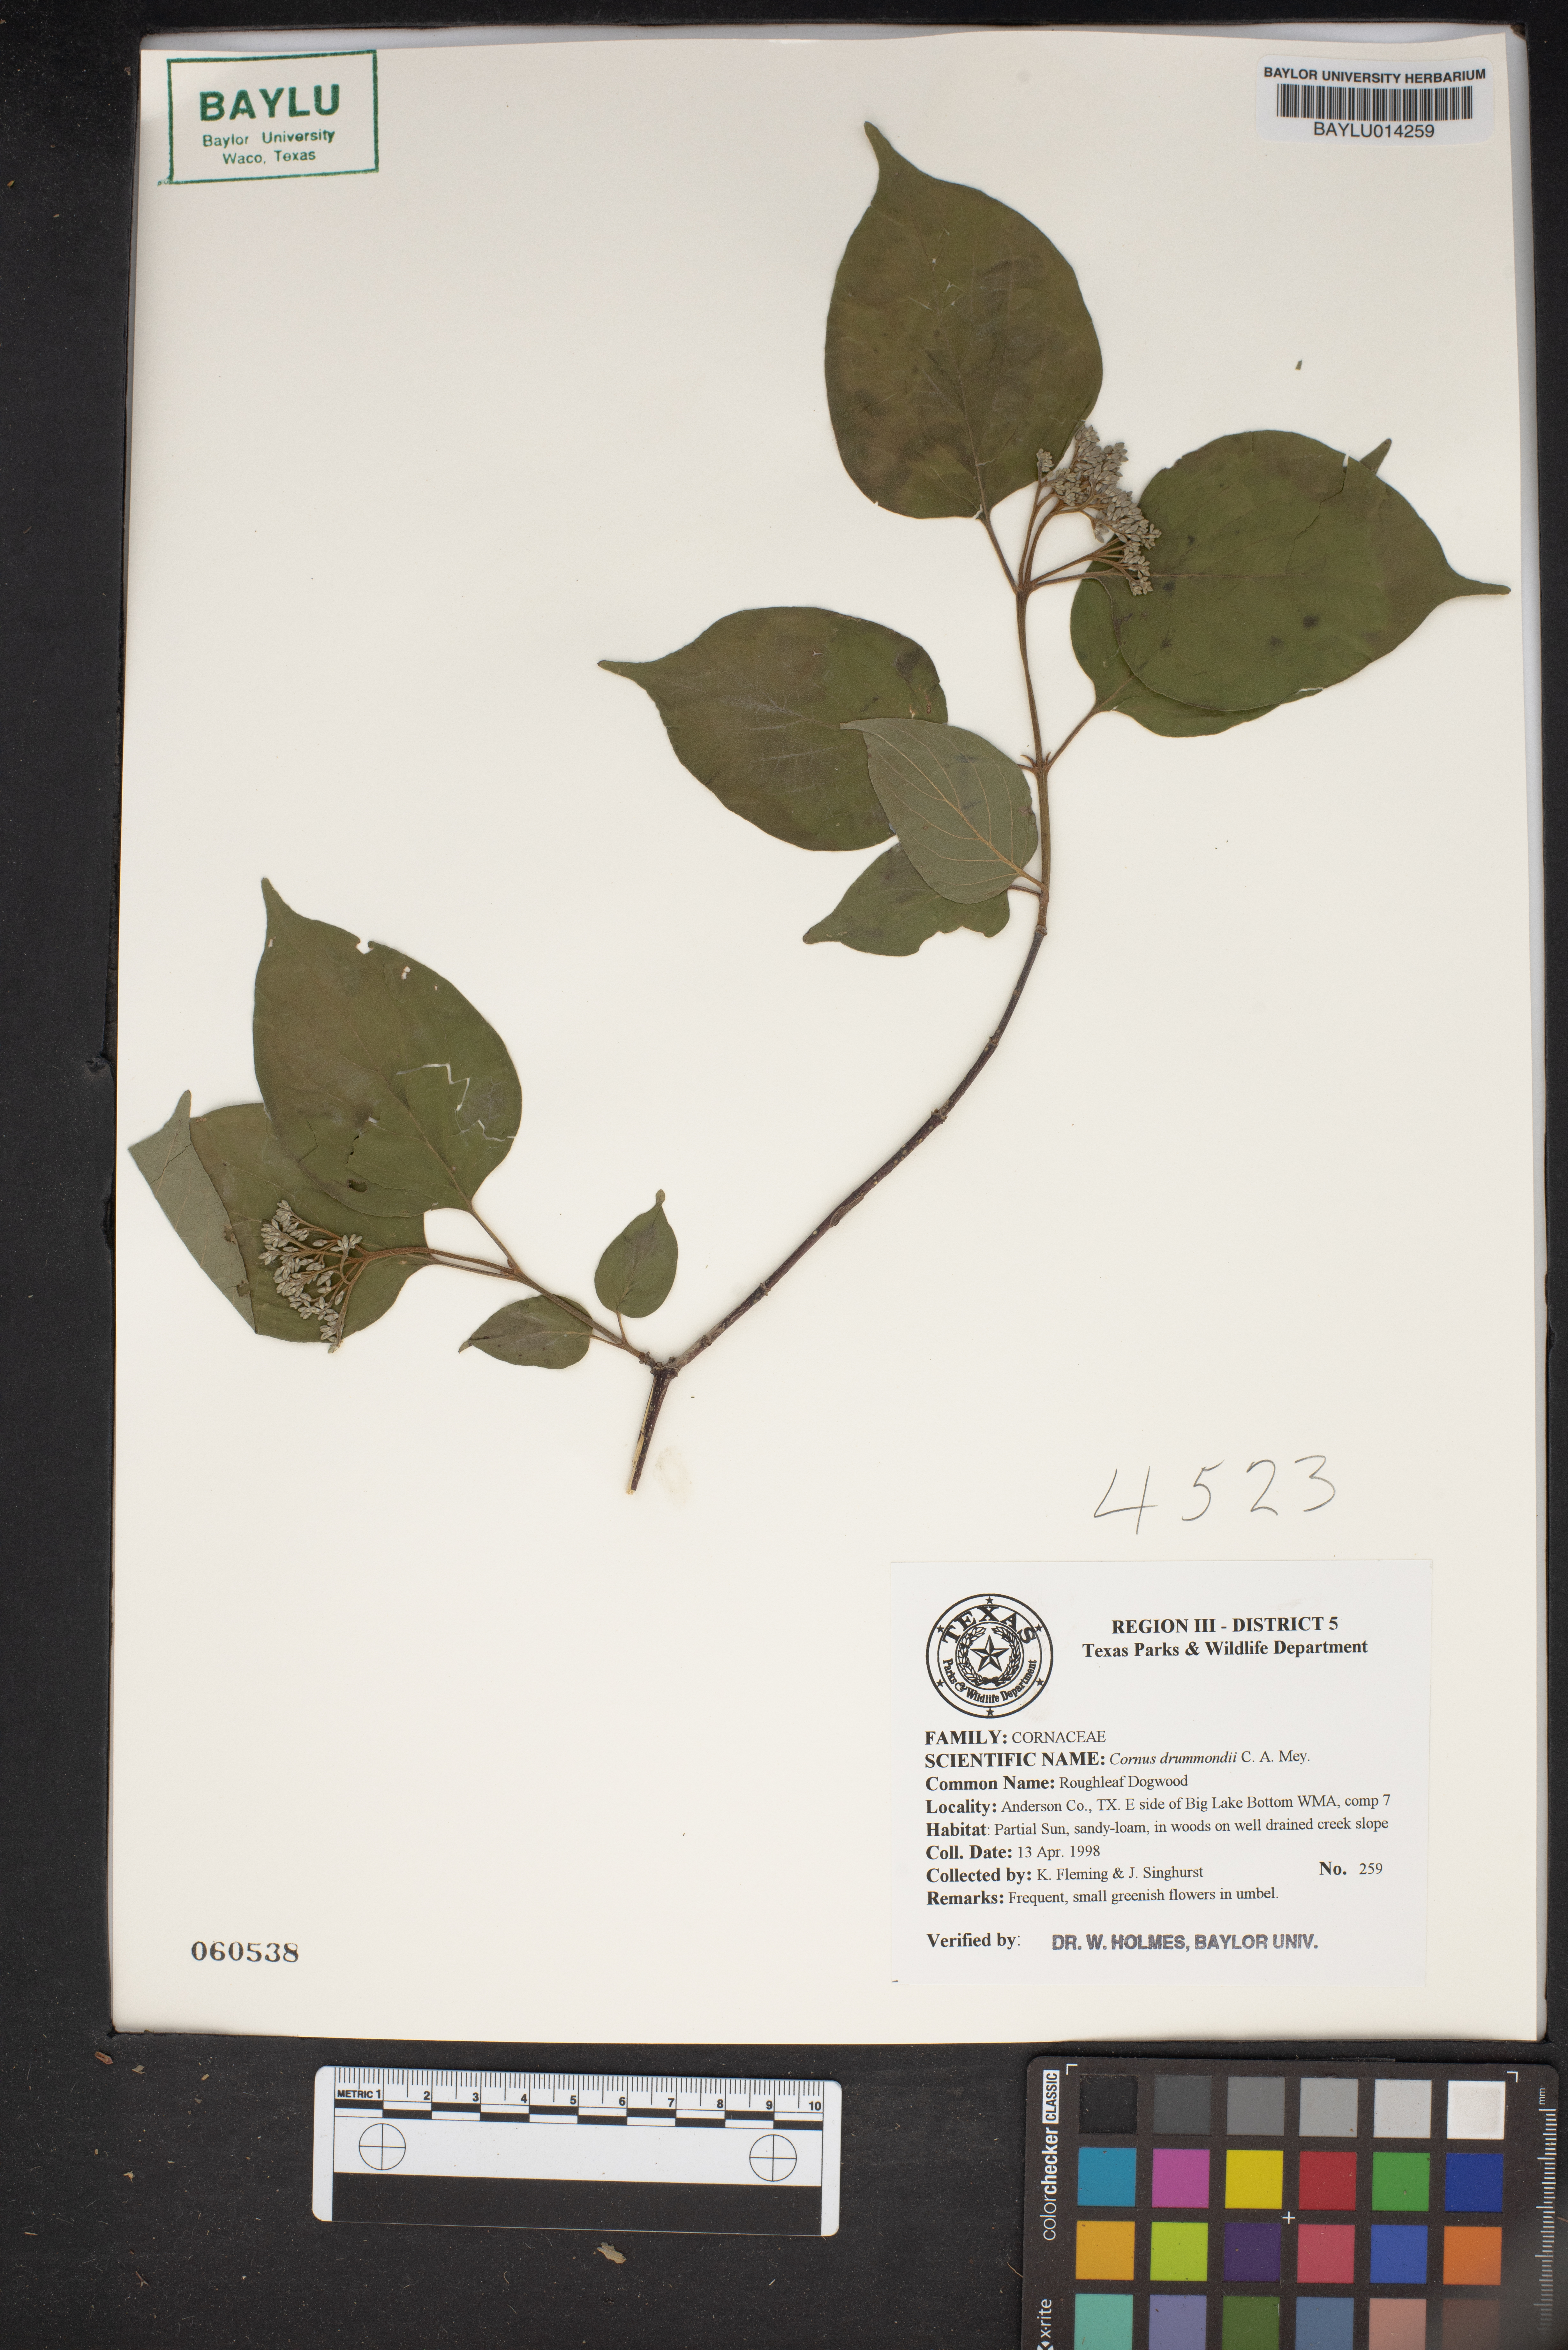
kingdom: Plantae
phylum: Tracheophyta
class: Magnoliopsida
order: Cornales
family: Cornaceae
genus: Cornus
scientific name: Cornus drummondii
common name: Rough-leaf dogwood
